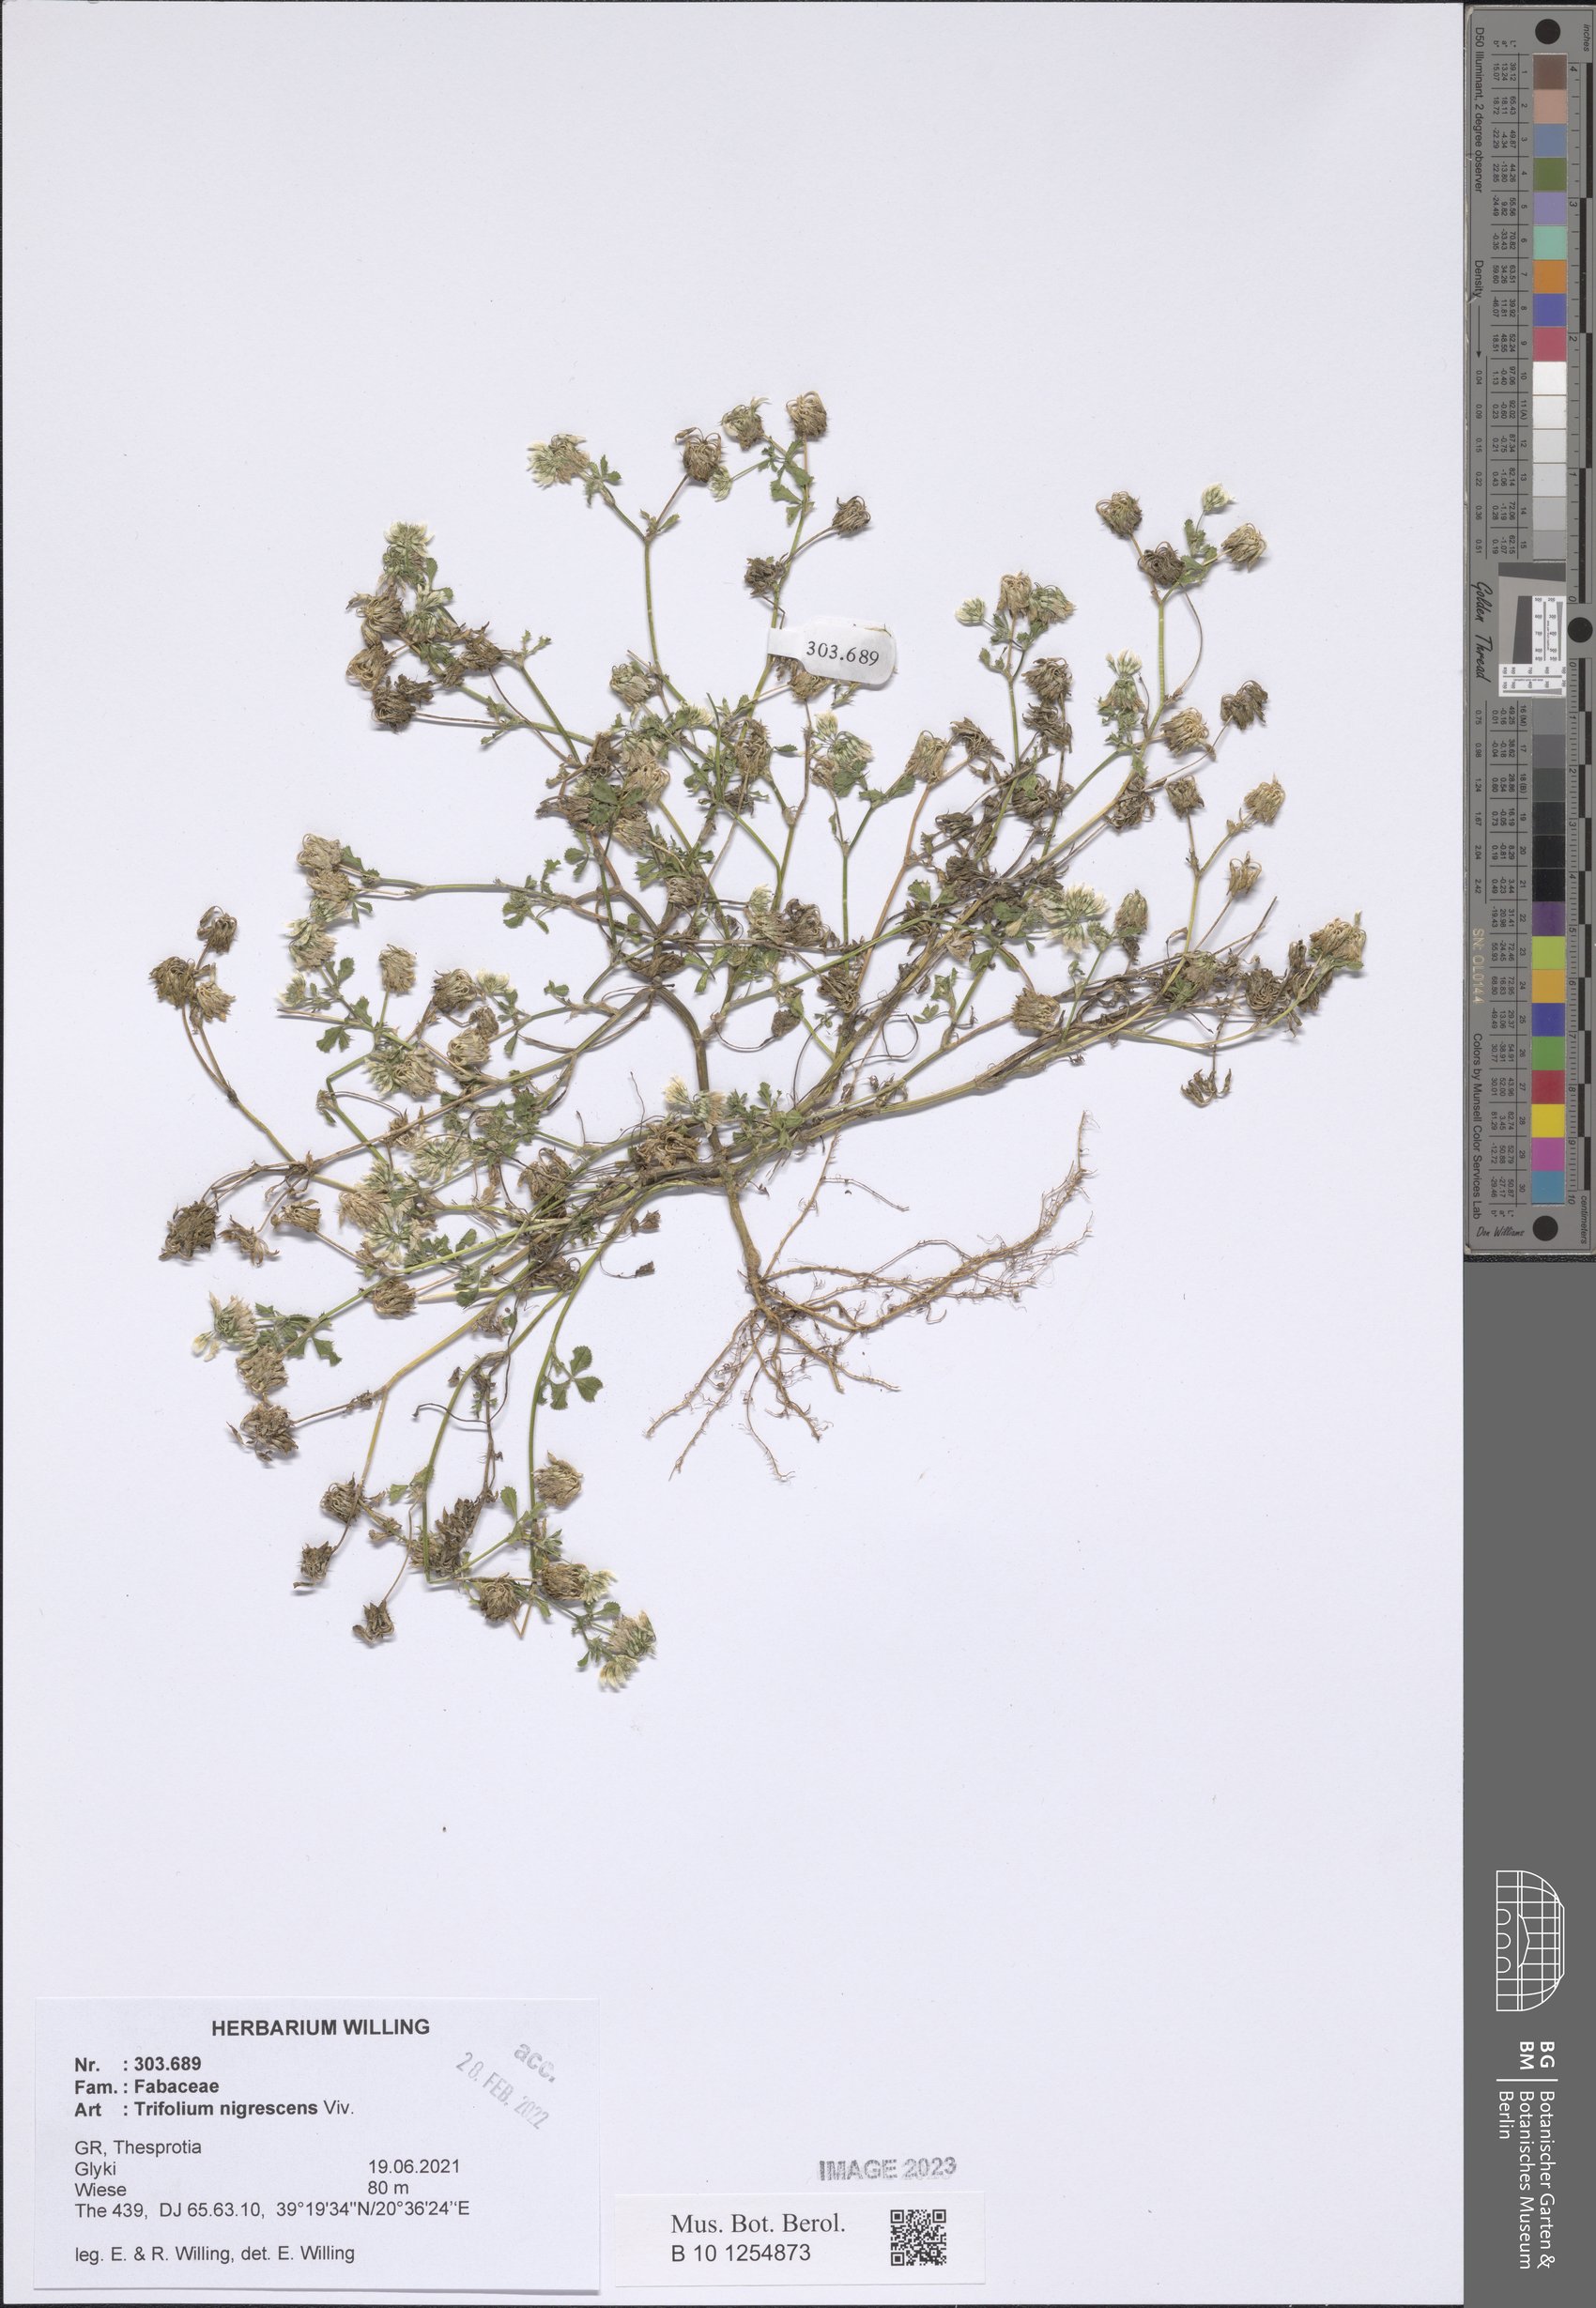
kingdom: Plantae
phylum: Tracheophyta
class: Magnoliopsida
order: Fabales
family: Fabaceae
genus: Trifolium
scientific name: Trifolium nigrescens
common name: Small white clover
